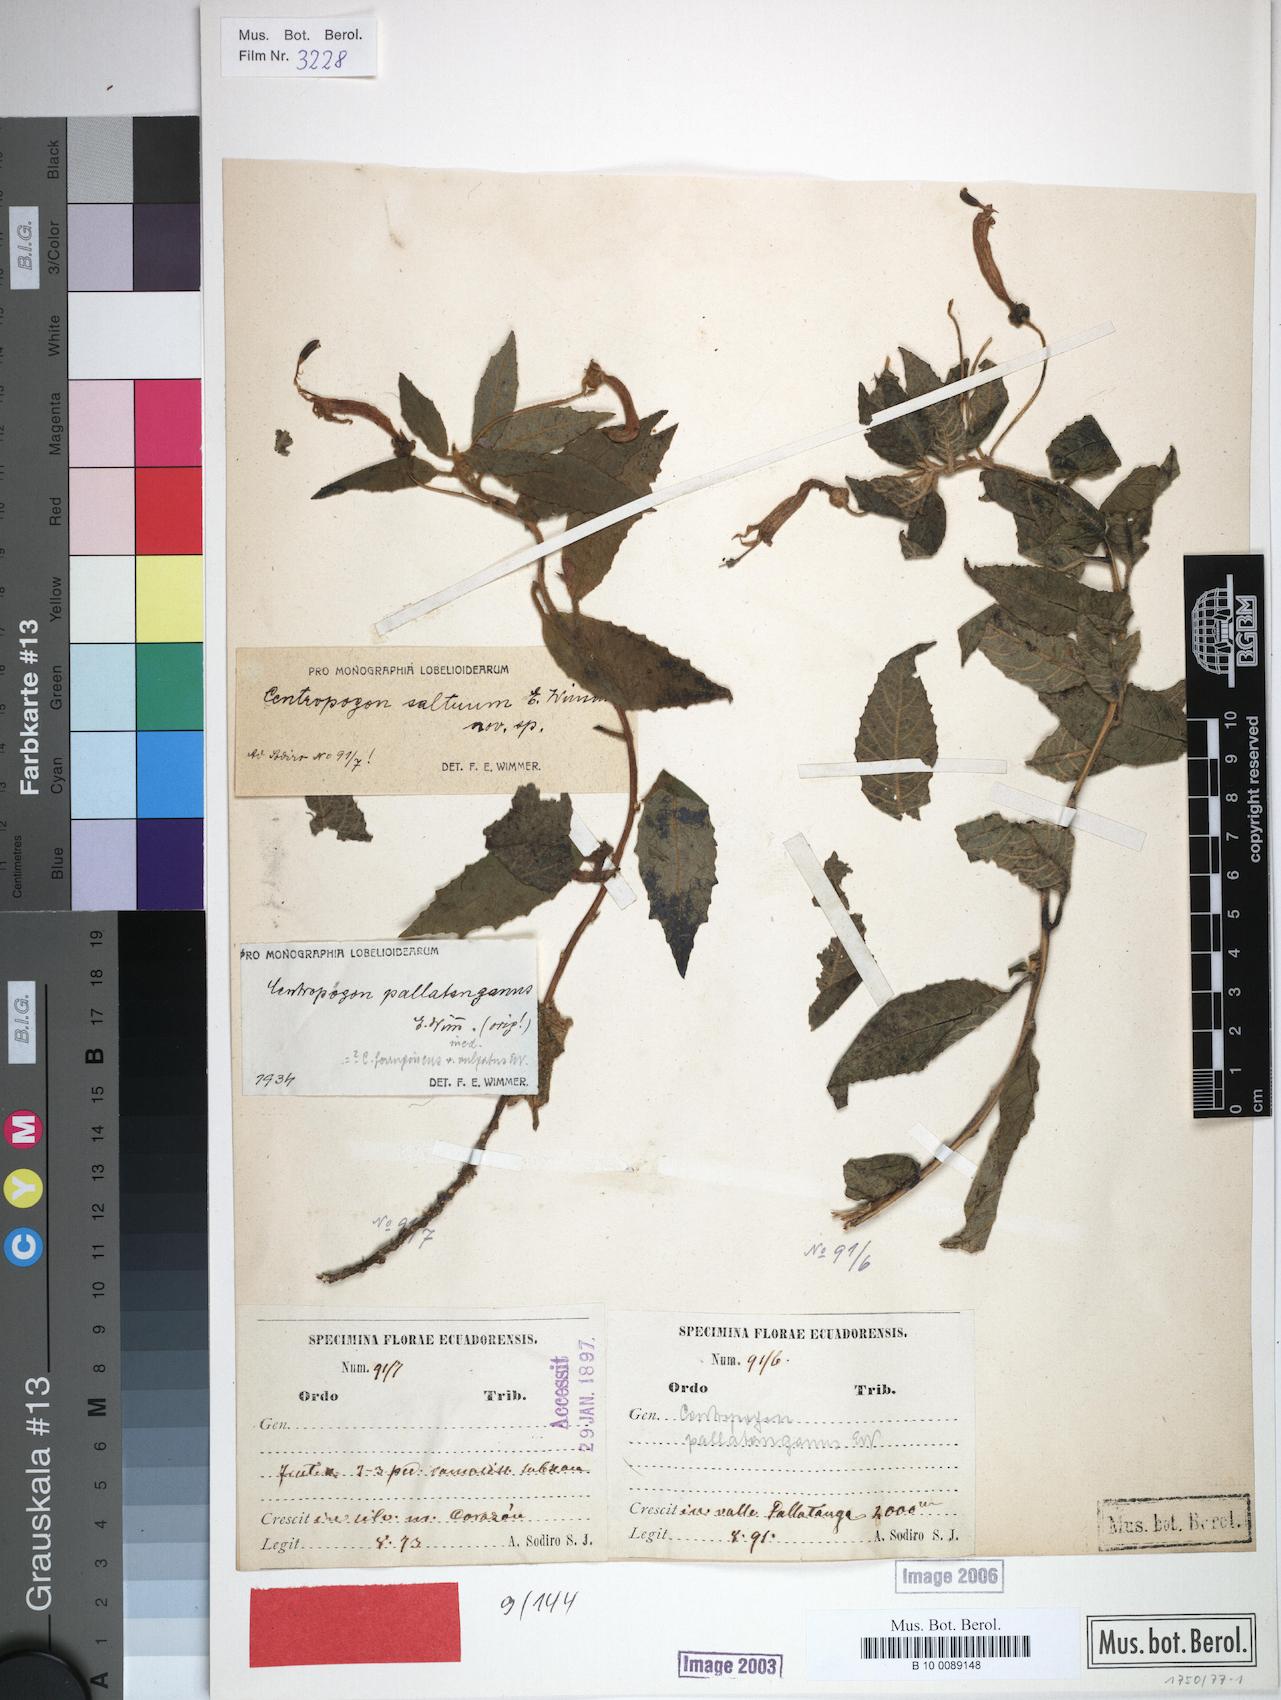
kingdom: Plantae
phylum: Tracheophyta
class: Magnoliopsida
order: Asterales
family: Campanulaceae
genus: Centropogon
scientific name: Centropogon saltuum
